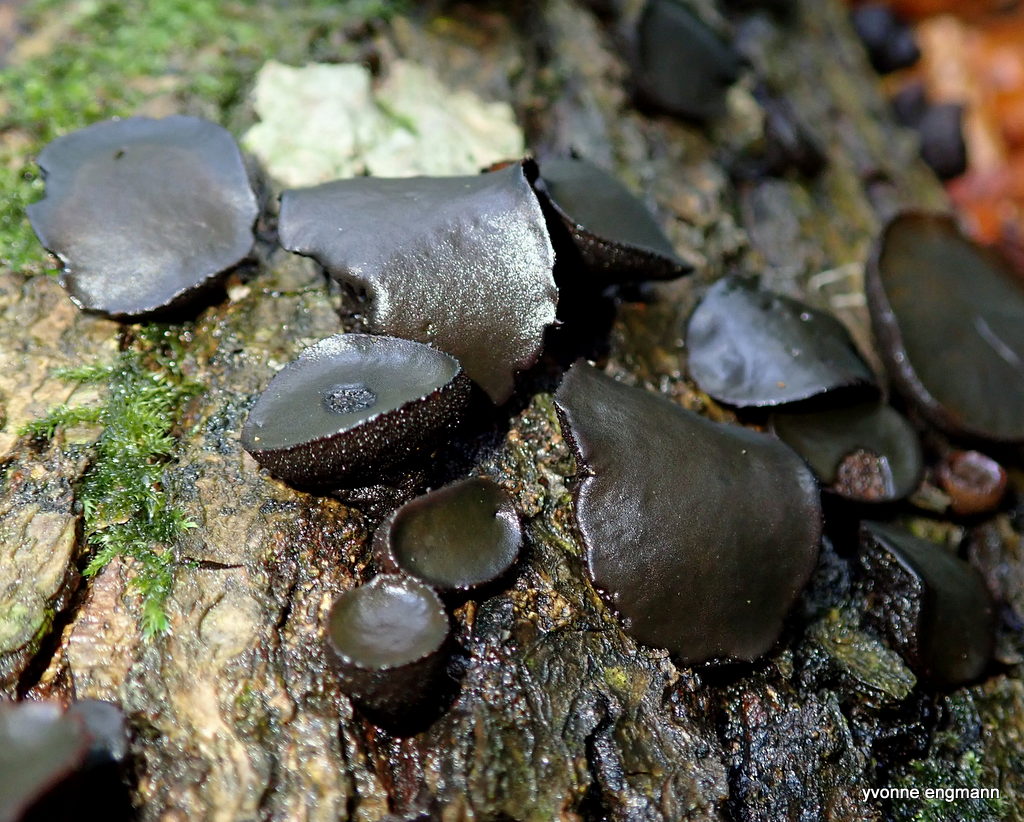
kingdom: Fungi
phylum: Ascomycota
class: Leotiomycetes
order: Phacidiales
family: Phacidiaceae
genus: Bulgaria
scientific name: Bulgaria inquinans
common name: afsmittende topsvamp
